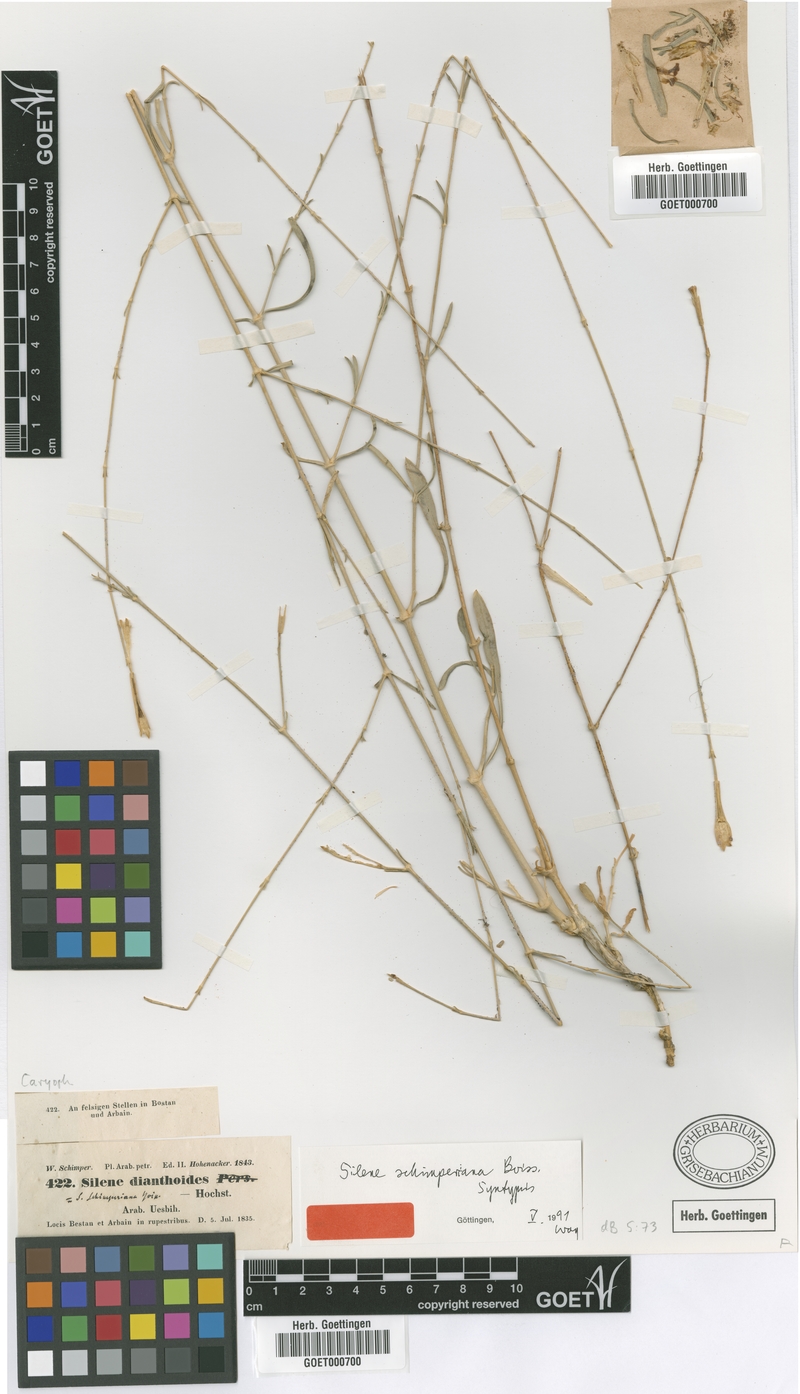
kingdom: Plantae
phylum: Tracheophyta
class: Magnoliopsida
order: Caryophyllales
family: Caryophyllaceae
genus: Silene
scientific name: Silene schimperiana
